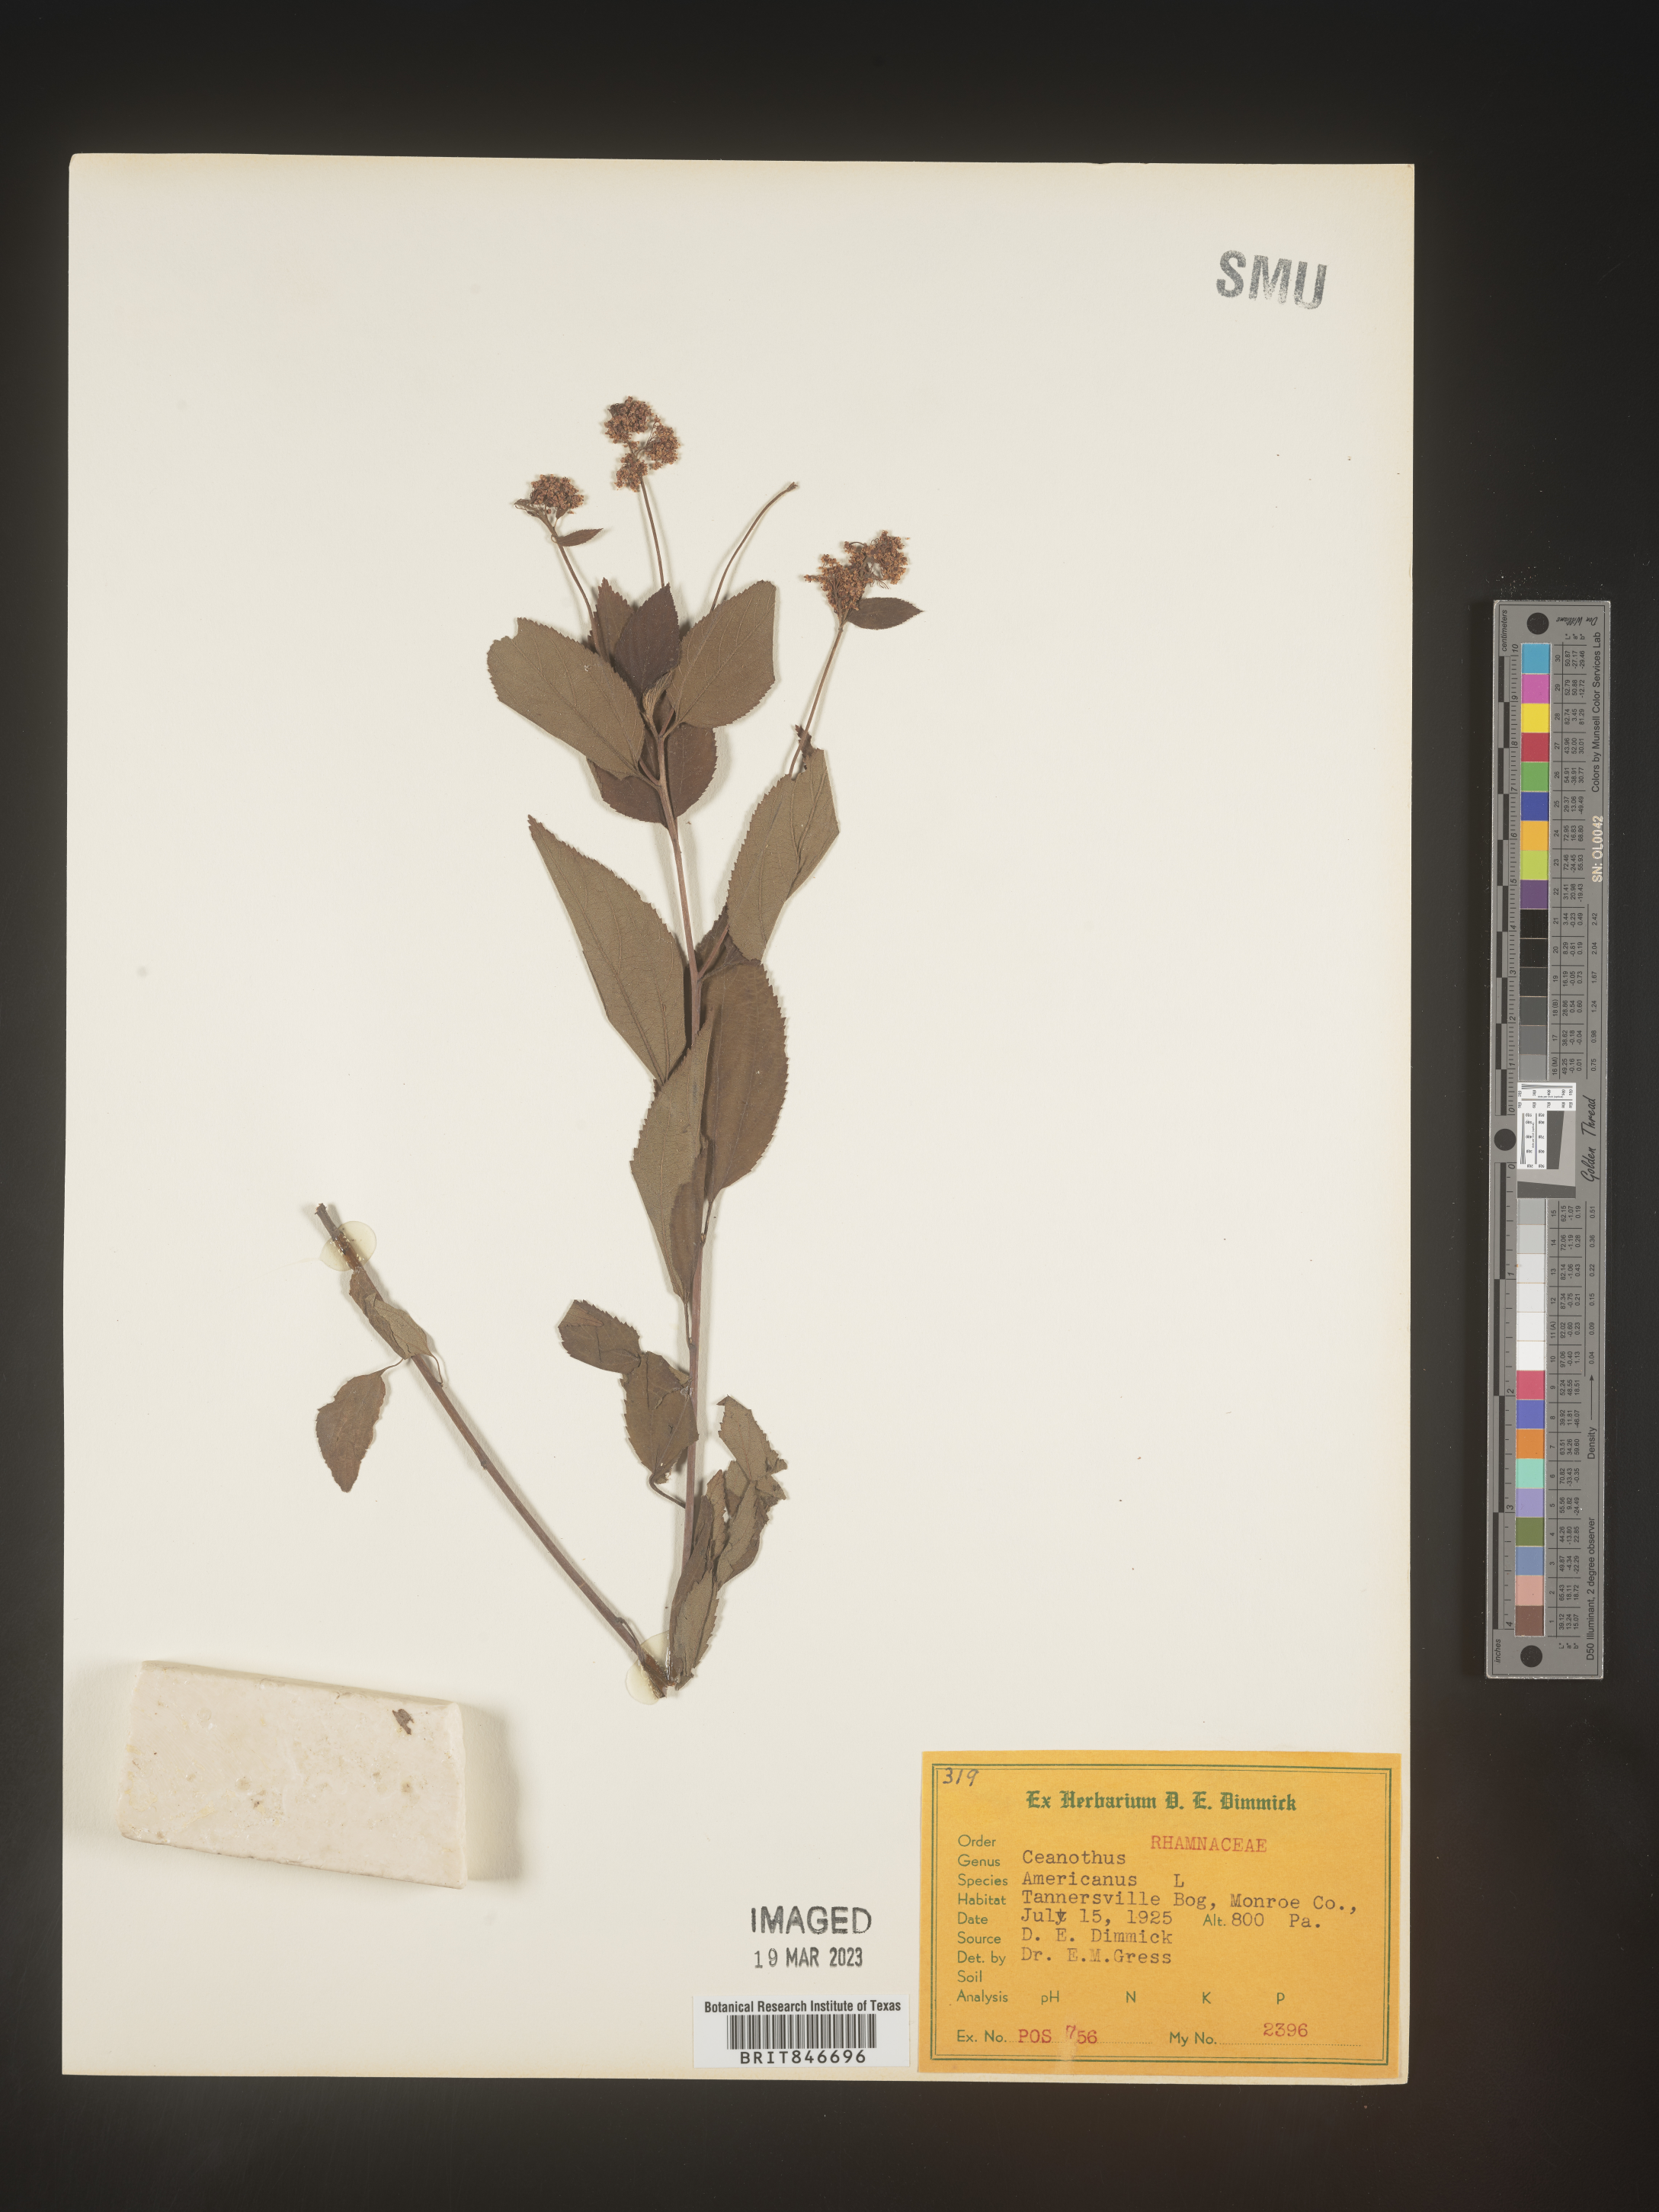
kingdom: Plantae
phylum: Tracheophyta
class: Magnoliopsida
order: Rosales
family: Rhamnaceae
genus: Ceanothus
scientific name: Ceanothus americanus
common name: Redroot
